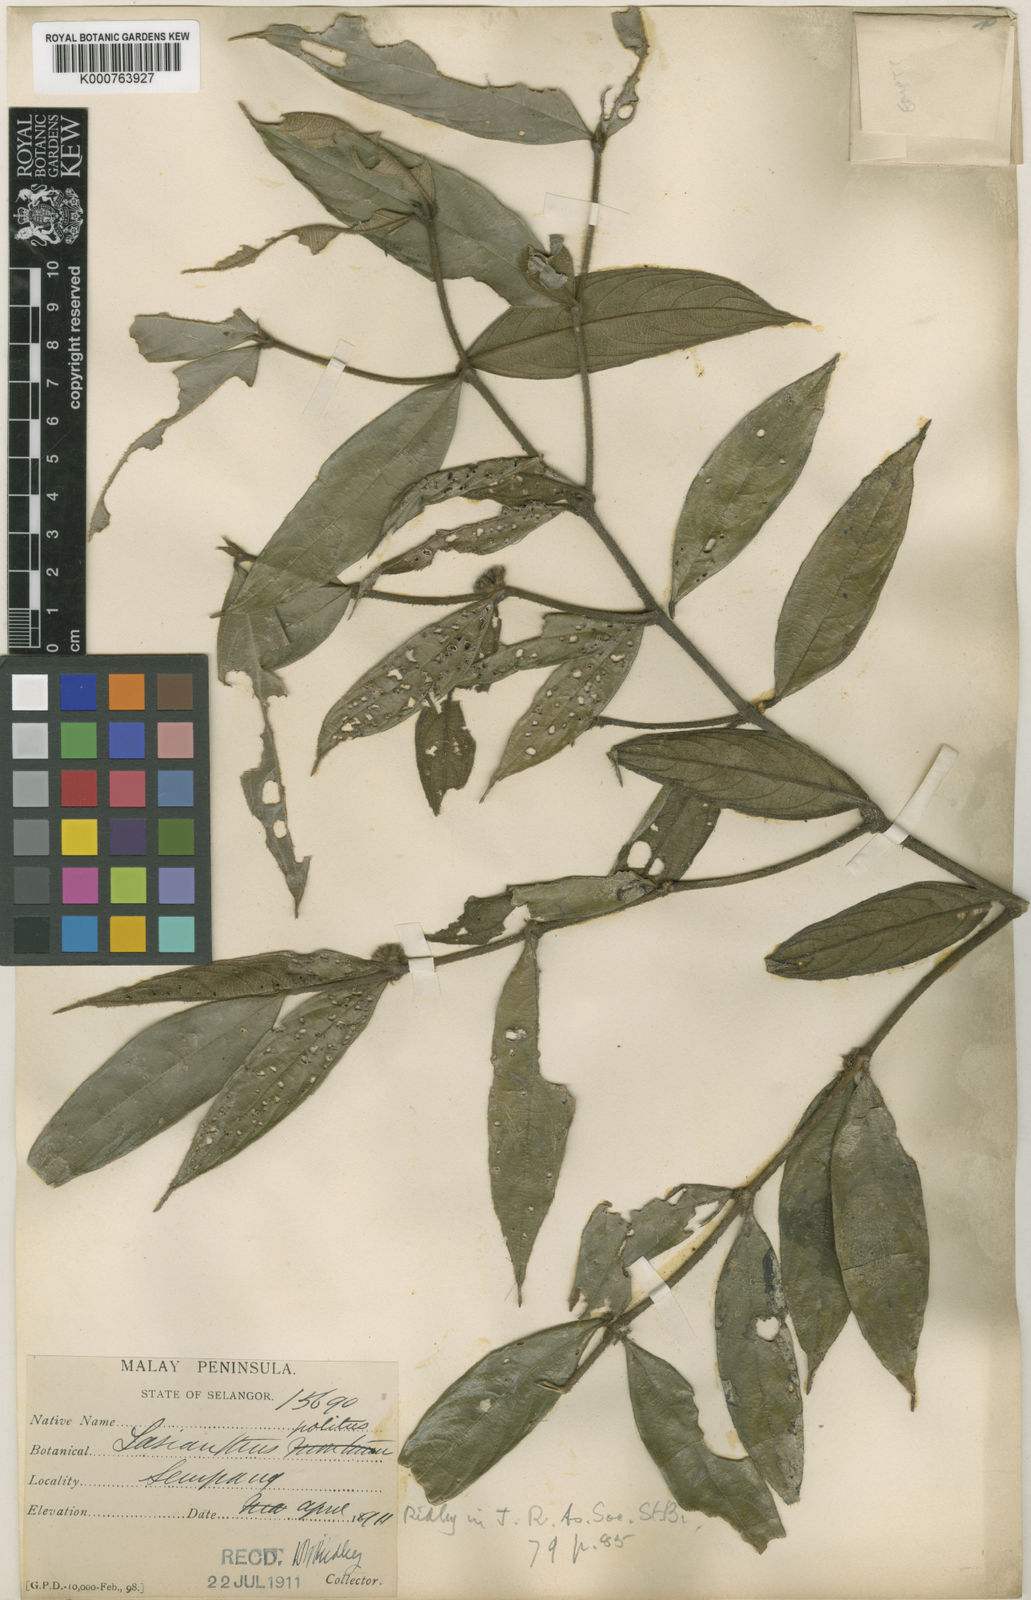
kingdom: Plantae
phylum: Tracheophyta
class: Magnoliopsida
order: Gentianales
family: Rubiaceae
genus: Lasianthus
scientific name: Lasianthus politus
